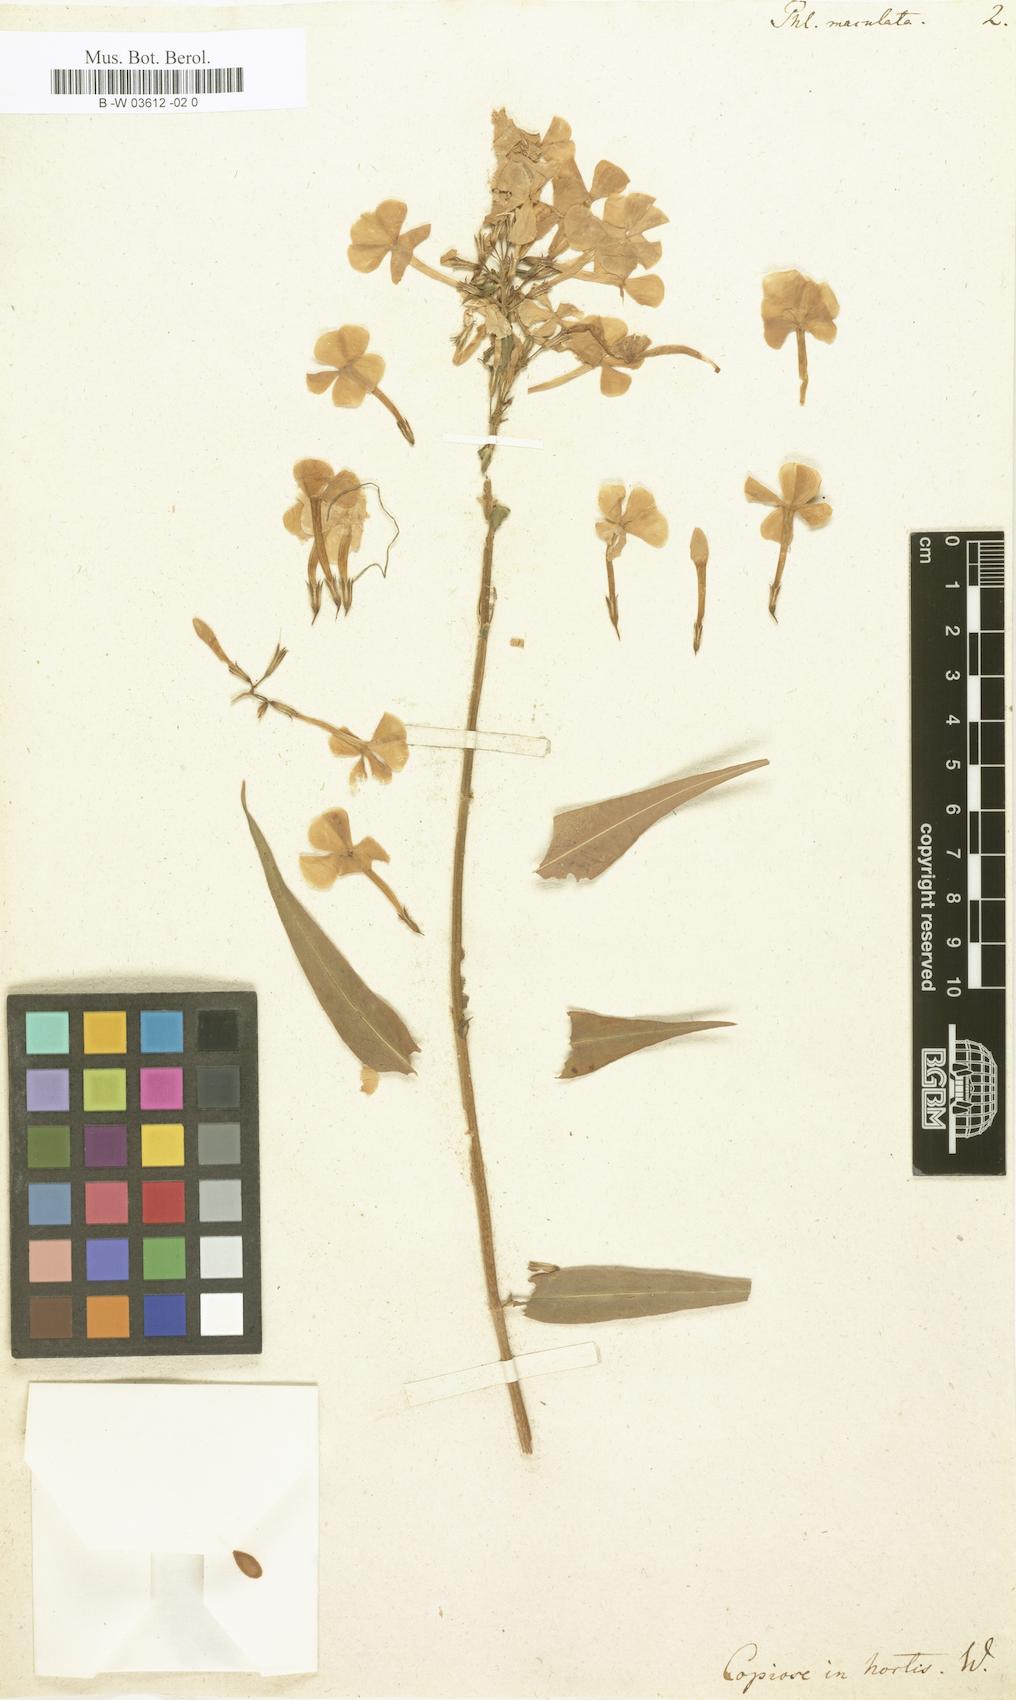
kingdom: Plantae
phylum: Tracheophyta
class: Magnoliopsida
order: Ericales
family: Polemoniaceae
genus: Phlox
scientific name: Phlox maculata
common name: Meadow phlox
